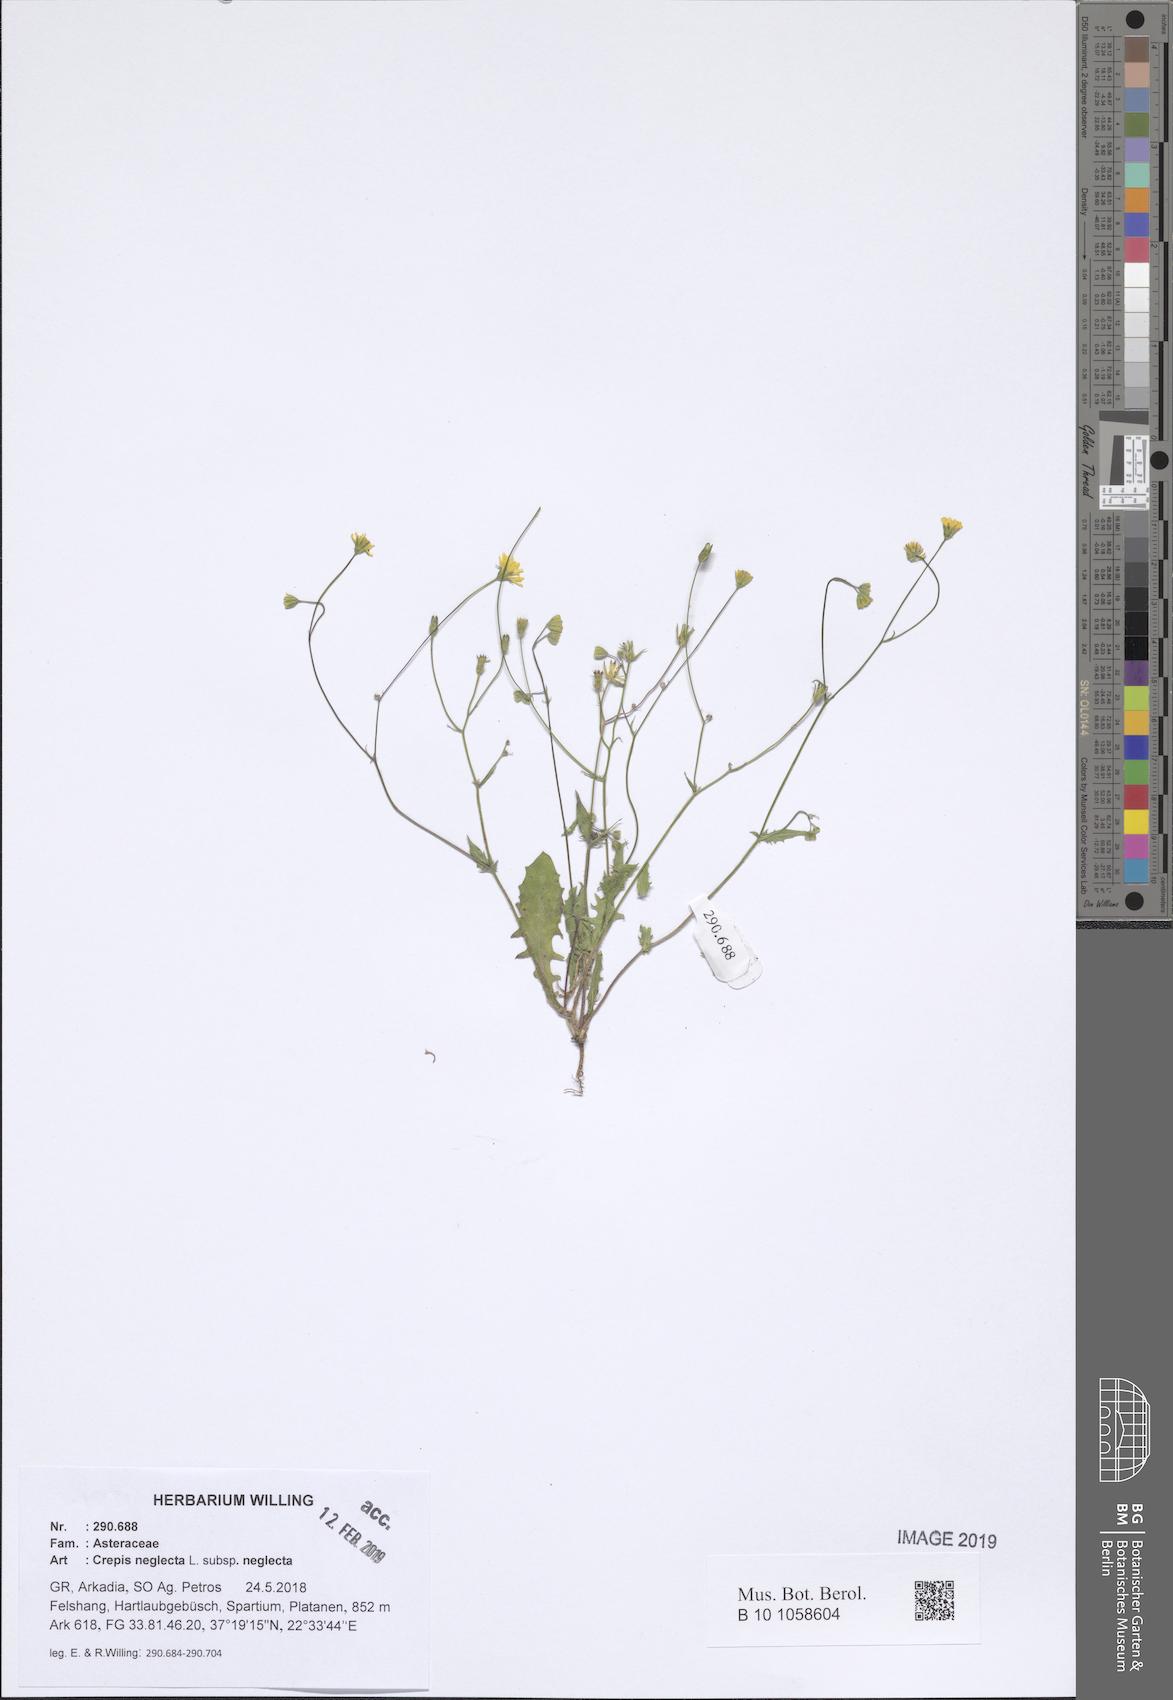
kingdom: Plantae
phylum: Tracheophyta
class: Magnoliopsida
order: Asterales
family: Asteraceae
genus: Crepis
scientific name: Crepis neglecta
